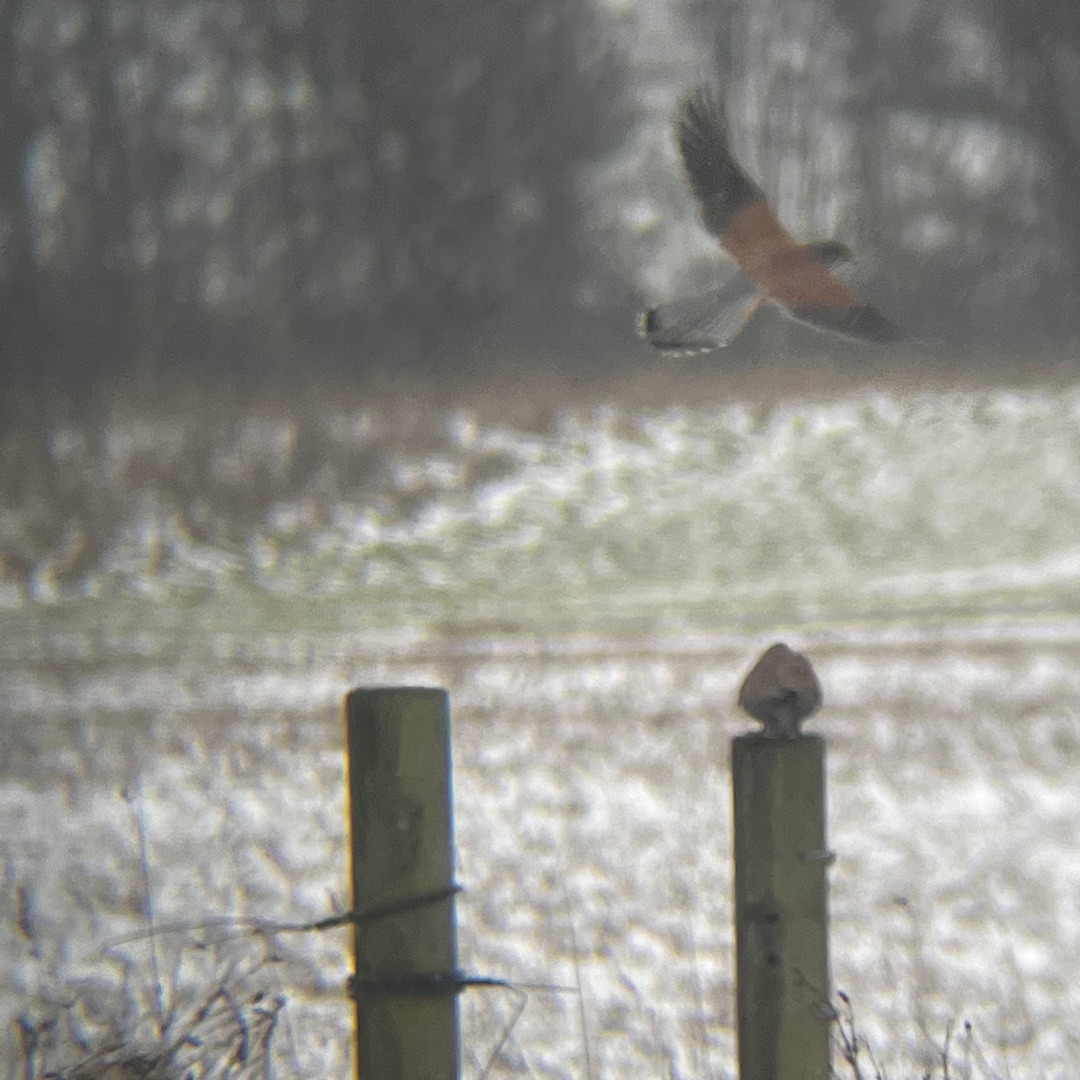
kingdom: Animalia
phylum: Chordata
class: Aves
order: Falconiformes
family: Falconidae
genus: Falco
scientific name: Falco tinnunculus
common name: Tårnfalk
